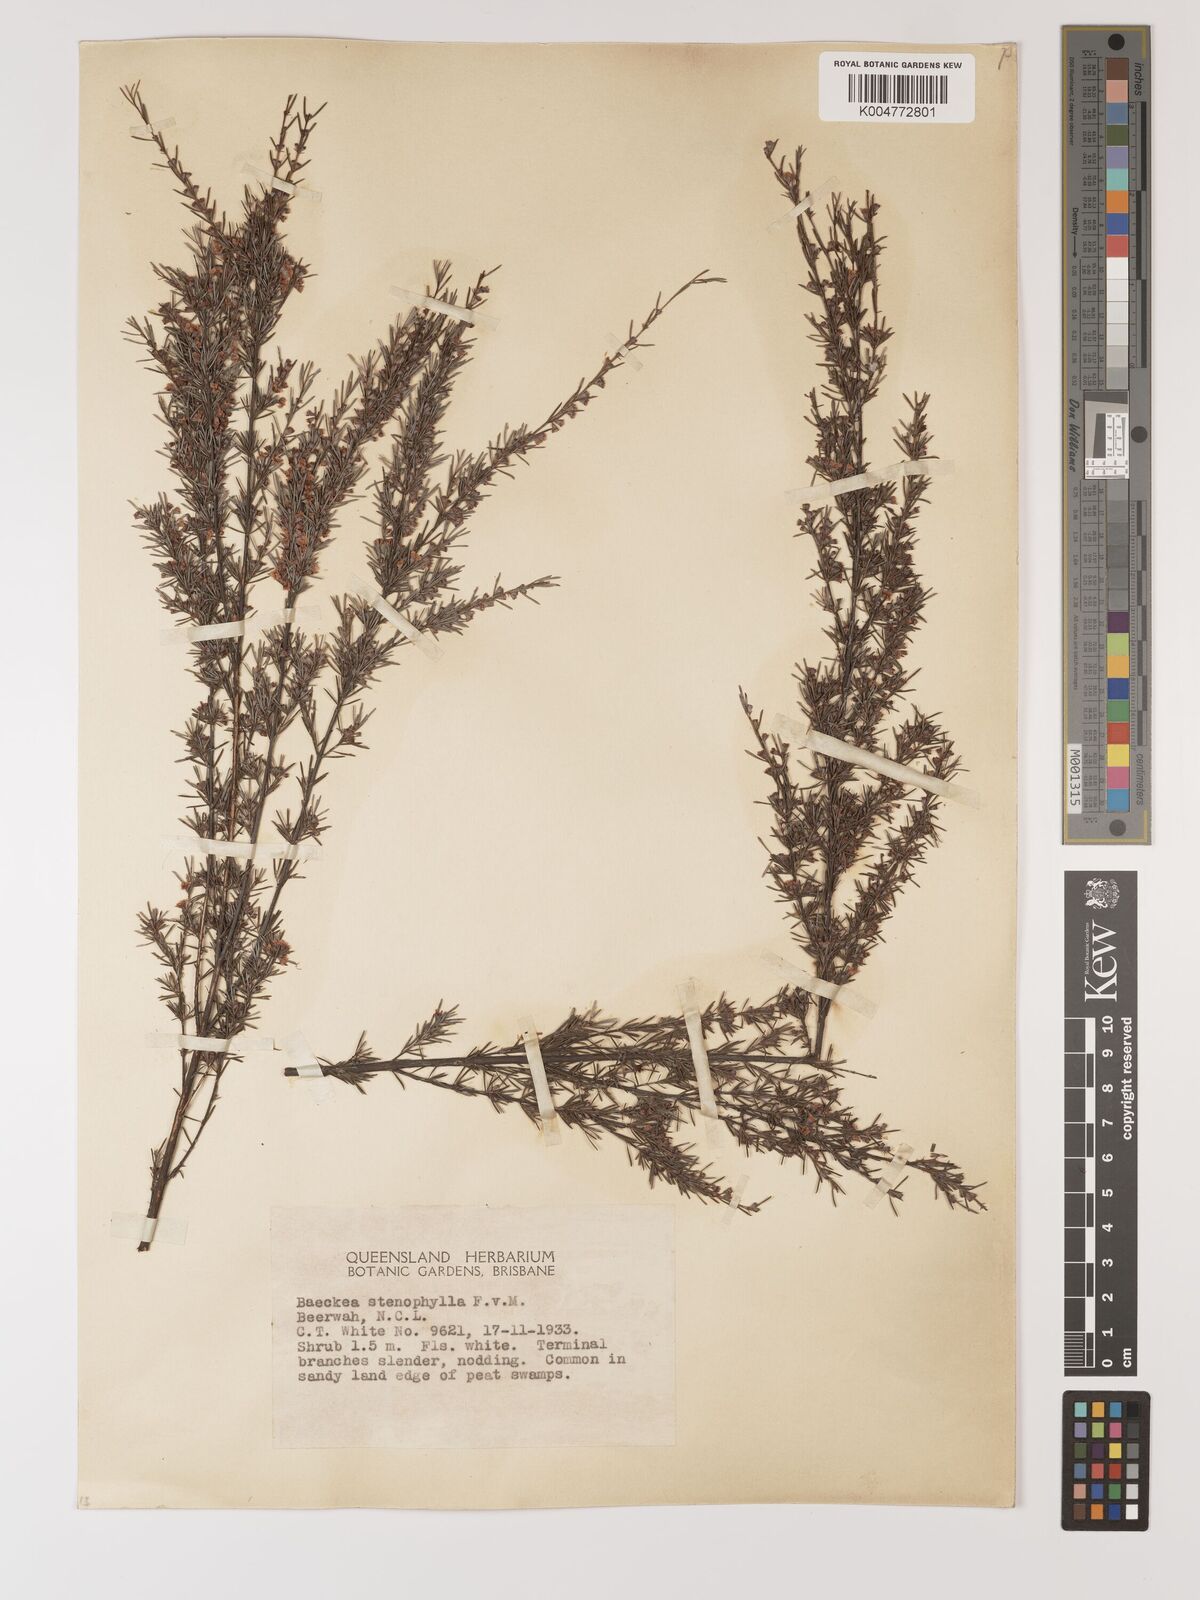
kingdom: Plantae
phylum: Tracheophyta
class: Magnoliopsida
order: Myrtales
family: Myrtaceae
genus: Baeckea
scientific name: Baeckea frutescens
